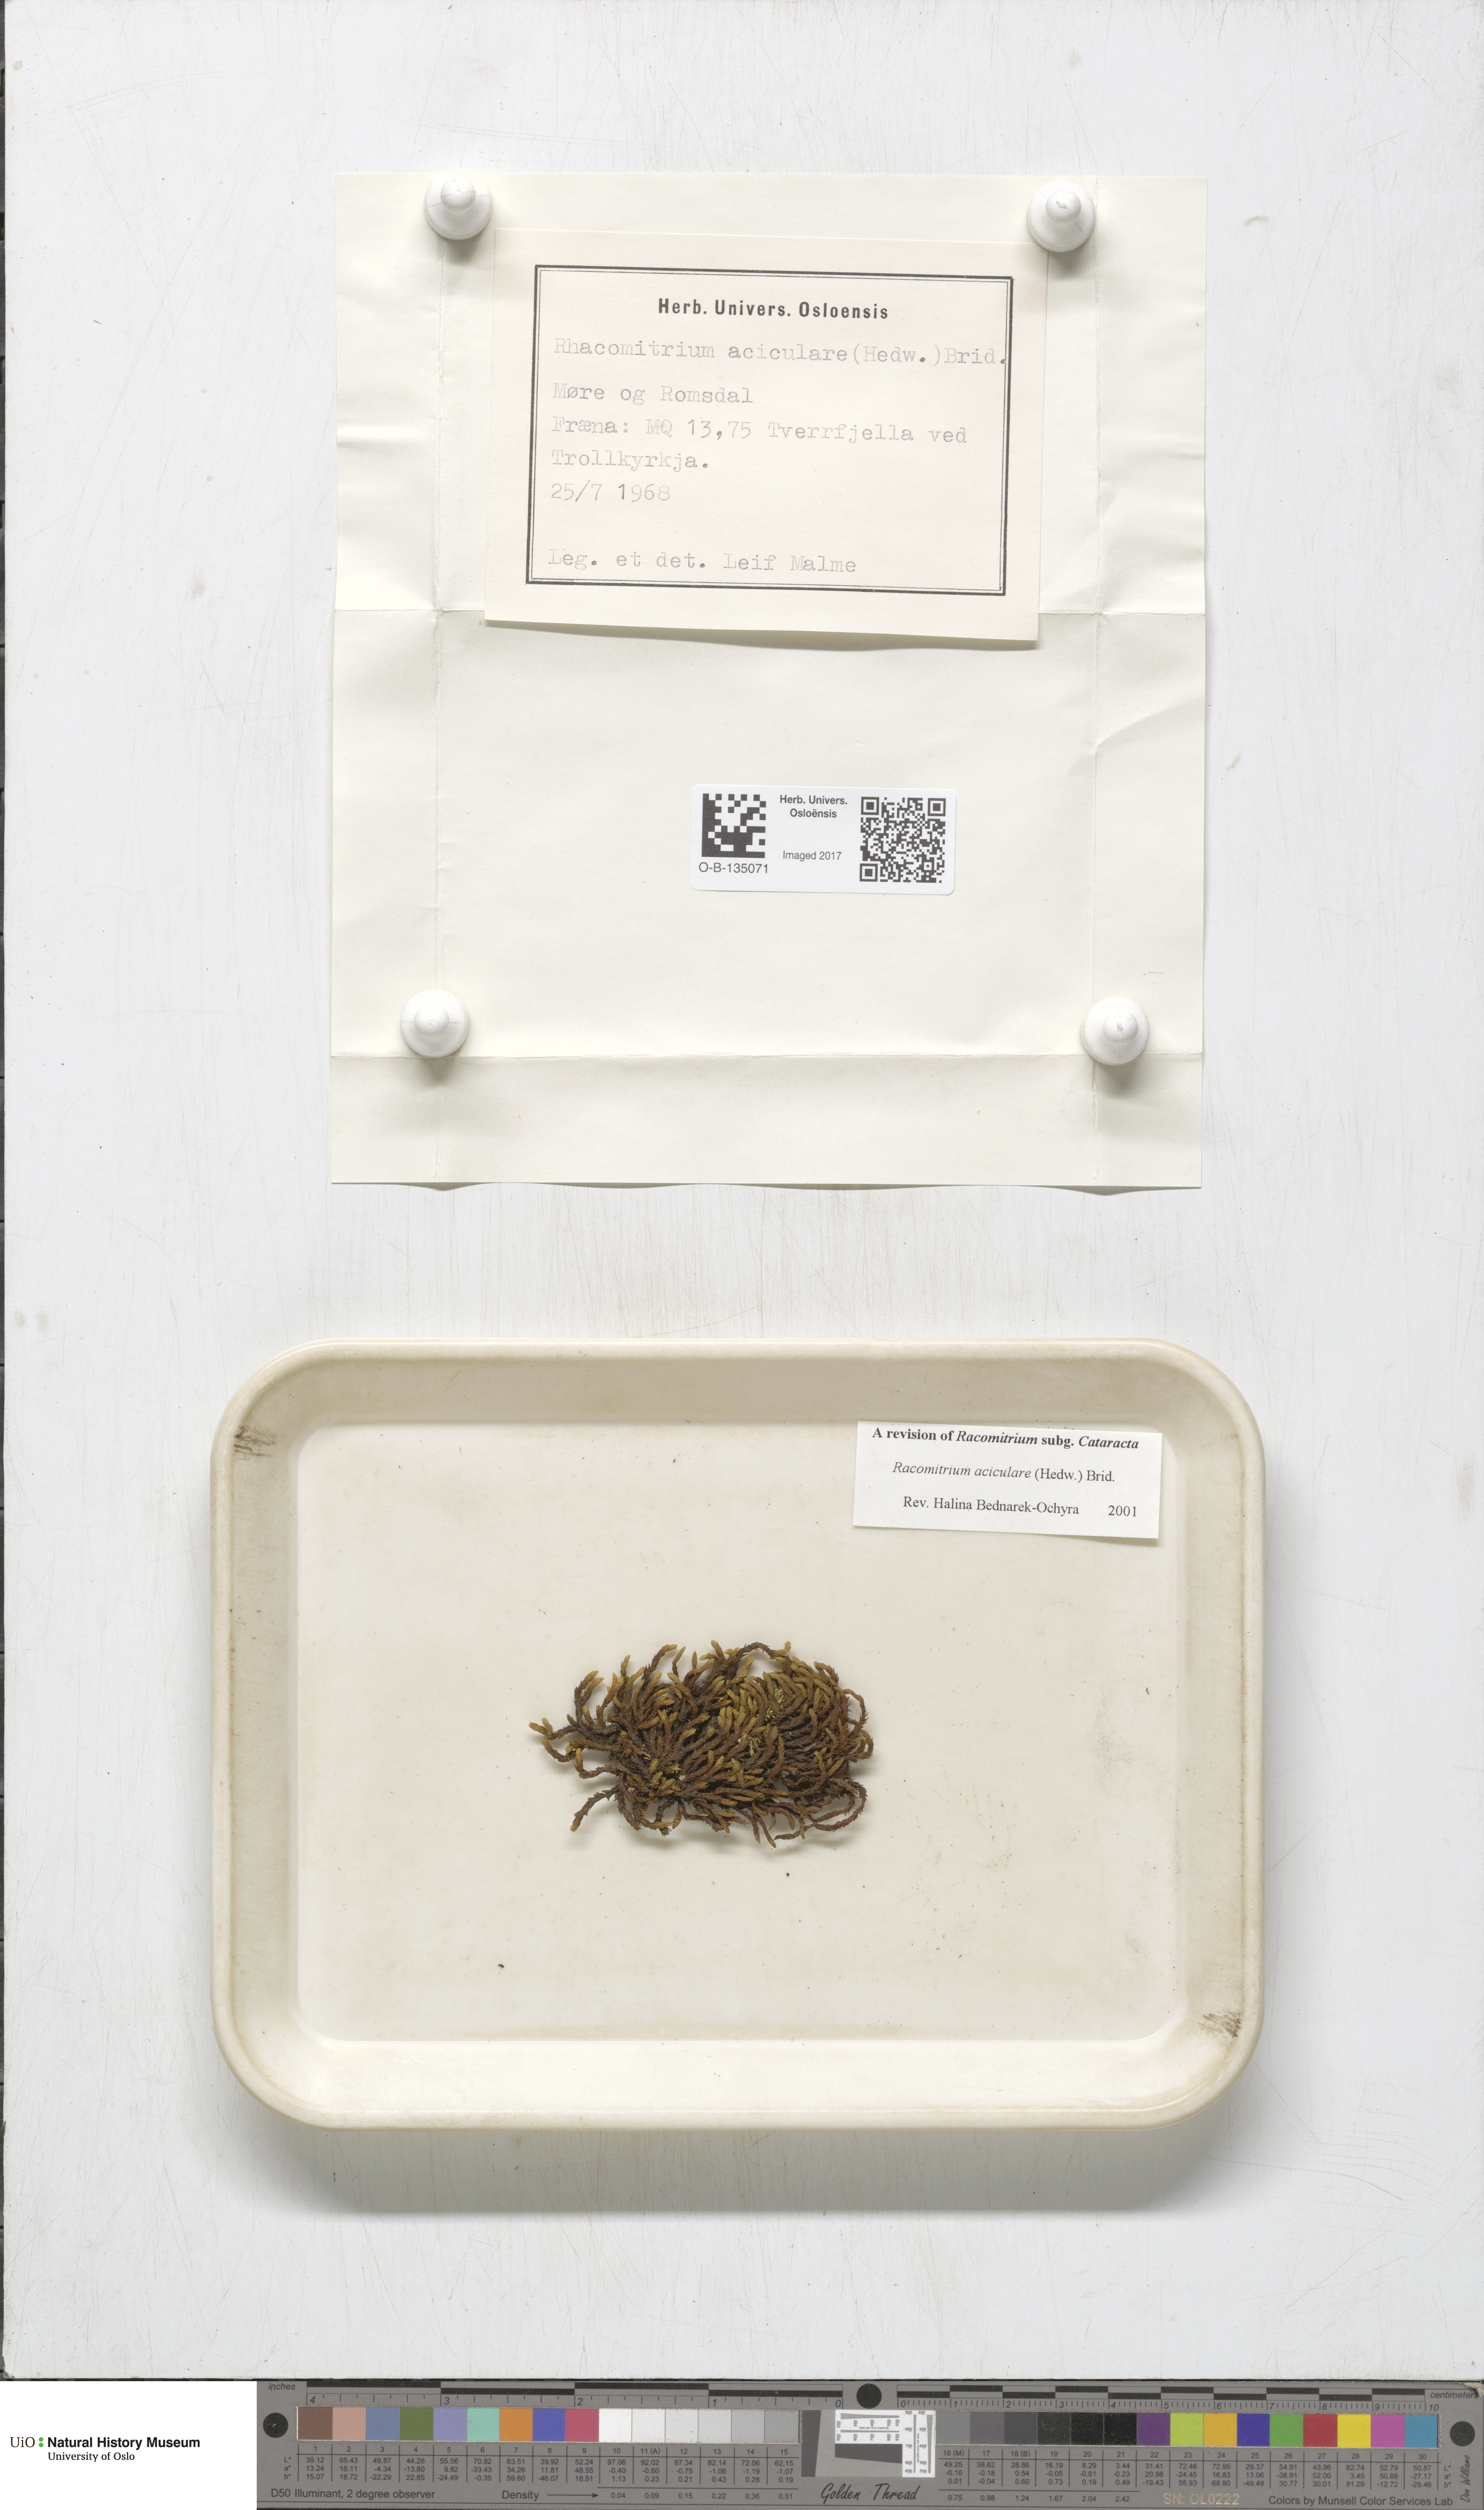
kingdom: Plantae
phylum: Bryophyta
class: Bryopsida
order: Grimmiales
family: Grimmiaceae
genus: Codriophorus
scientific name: Codriophorus acicularis
